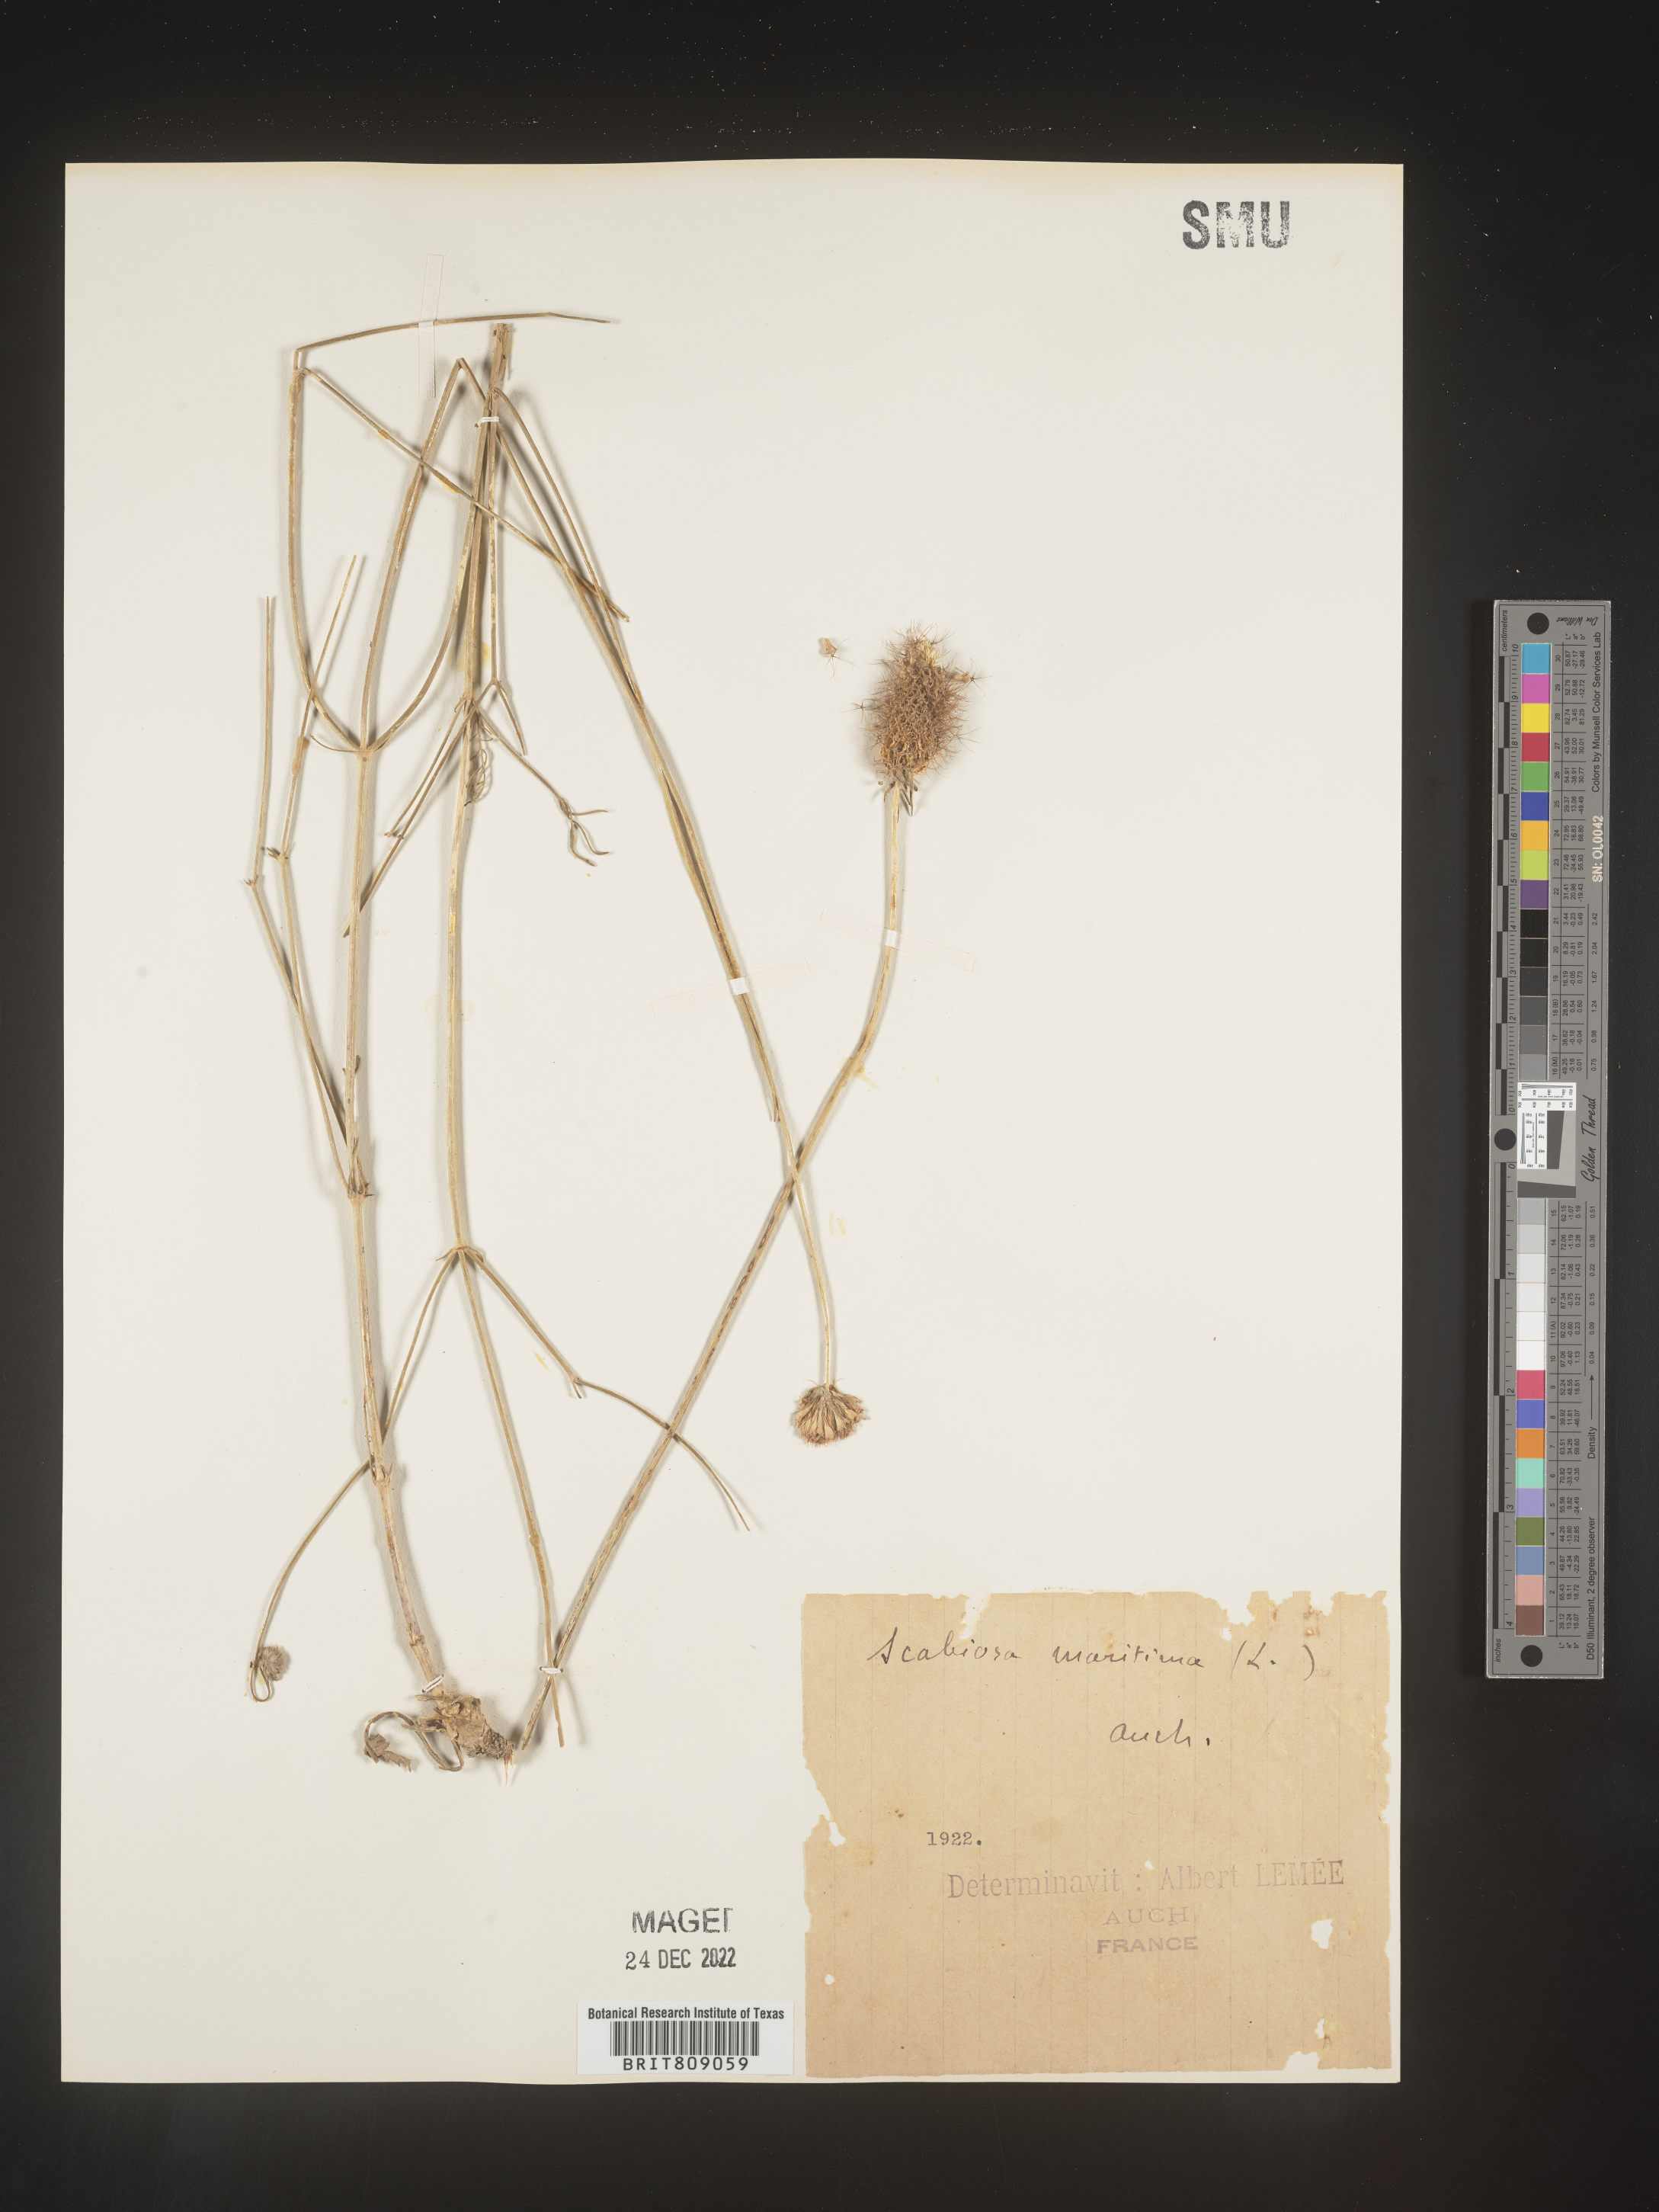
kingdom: Plantae
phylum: Tracheophyta
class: Magnoliopsida
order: Dipsacales
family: Caprifoliaceae
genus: Scabiosa
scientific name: Scabiosa
